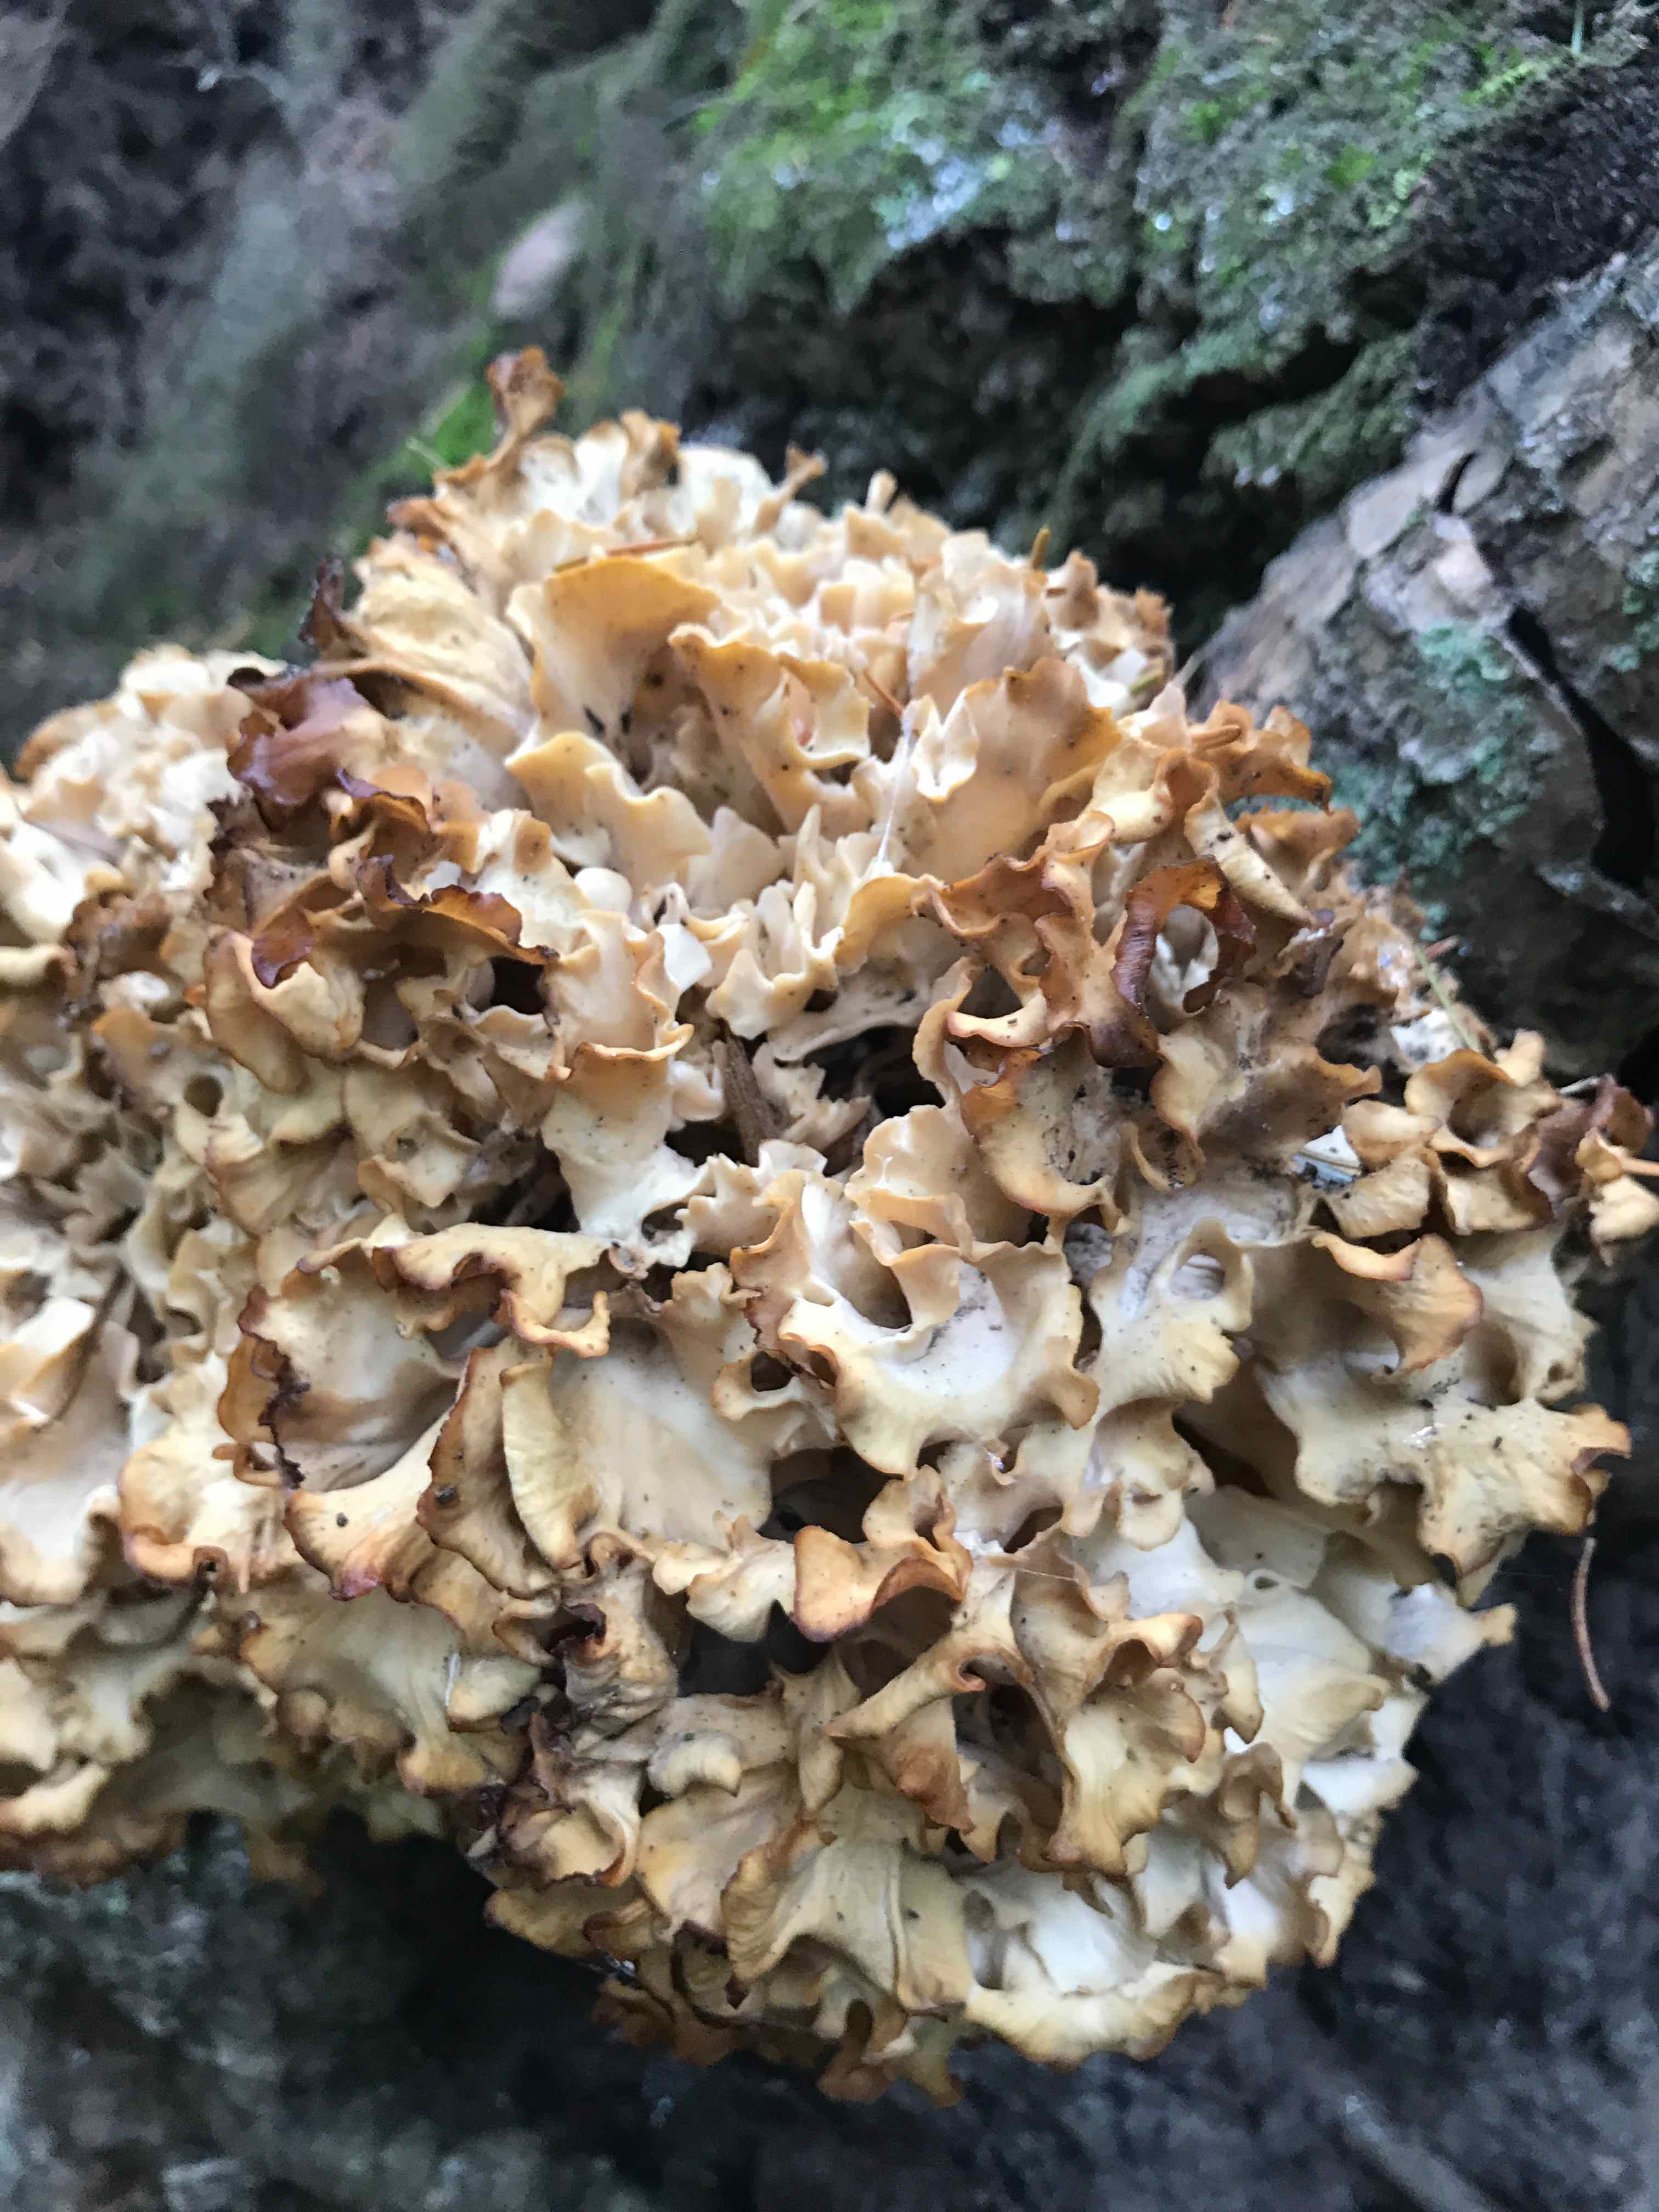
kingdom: Fungi
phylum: Basidiomycota
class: Agaricomycetes
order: Polyporales
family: Sparassidaceae
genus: Sparassis
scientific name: Sparassis crispa
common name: kruset blomkålssvamp
